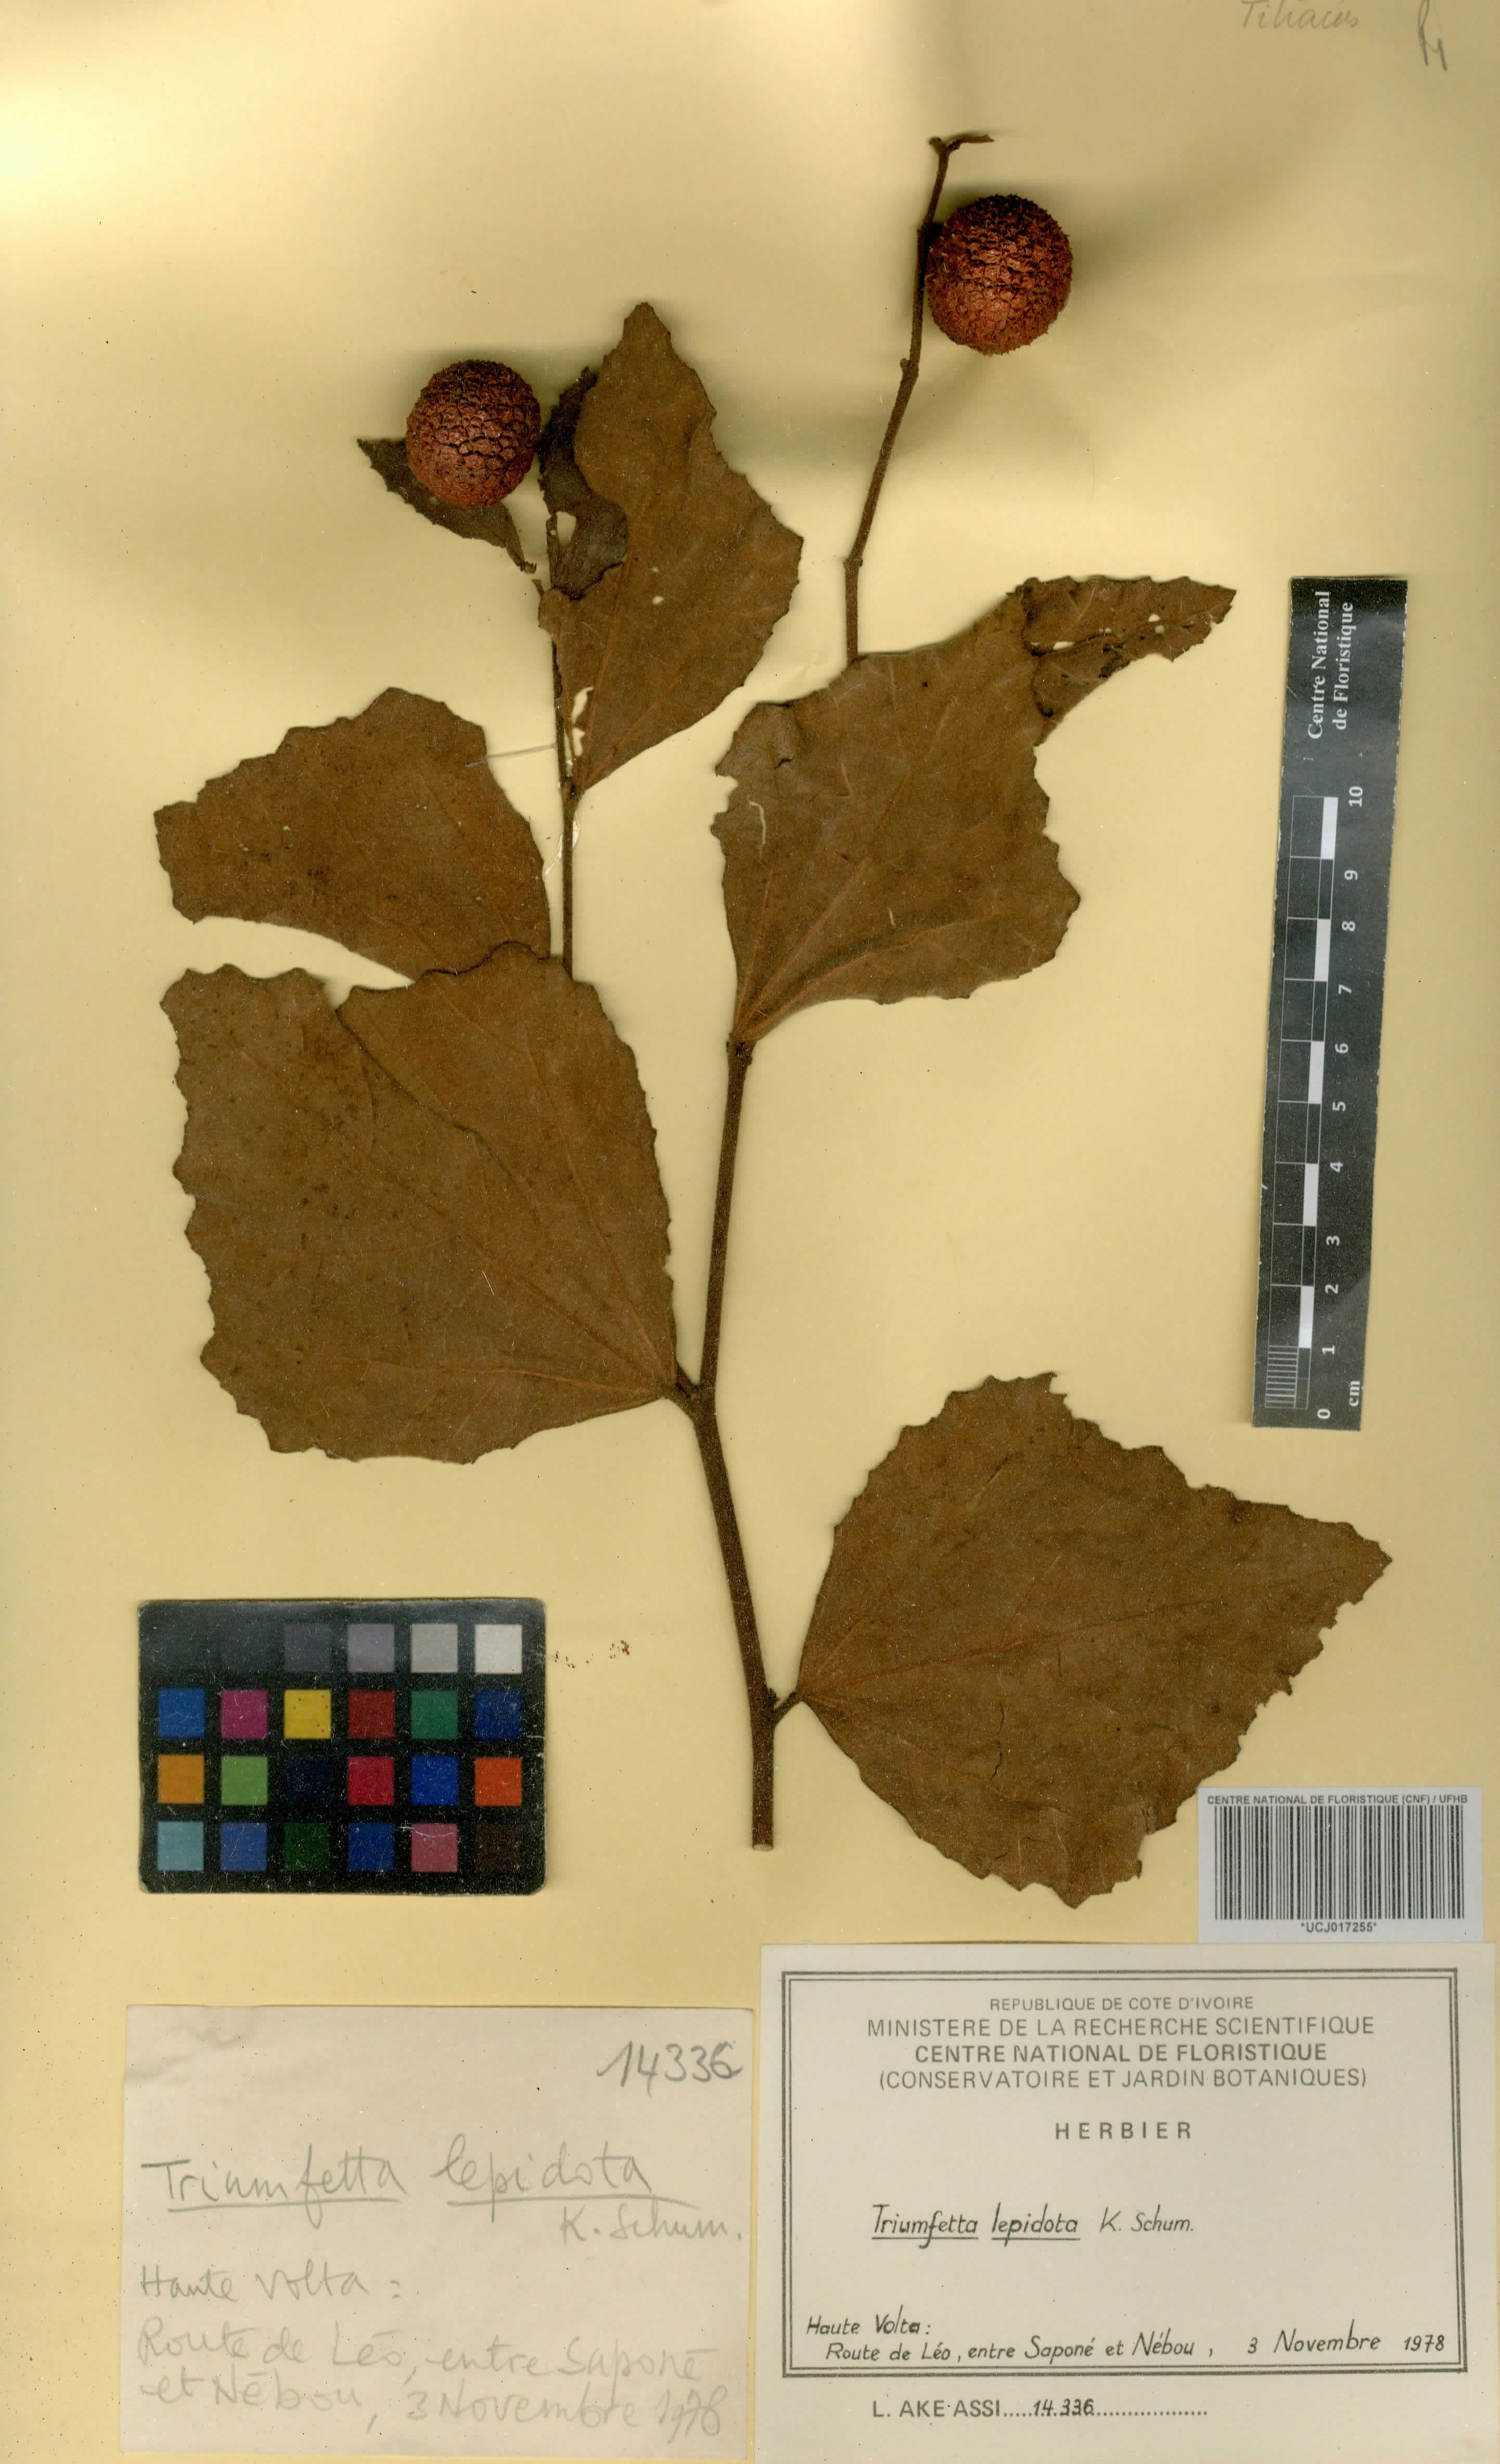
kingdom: Plantae
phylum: Tracheophyta
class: Magnoliopsida
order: Malvales
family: Malvaceae
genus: Triumfetta
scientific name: Triumfetta lepidota
